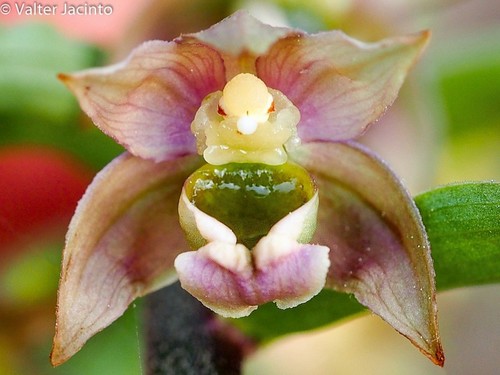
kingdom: Plantae
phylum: Tracheophyta
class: Liliopsida
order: Asparagales
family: Orchidaceae
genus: Epipactis
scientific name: Epipactis helleborine
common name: Broad-leaved helleborine
